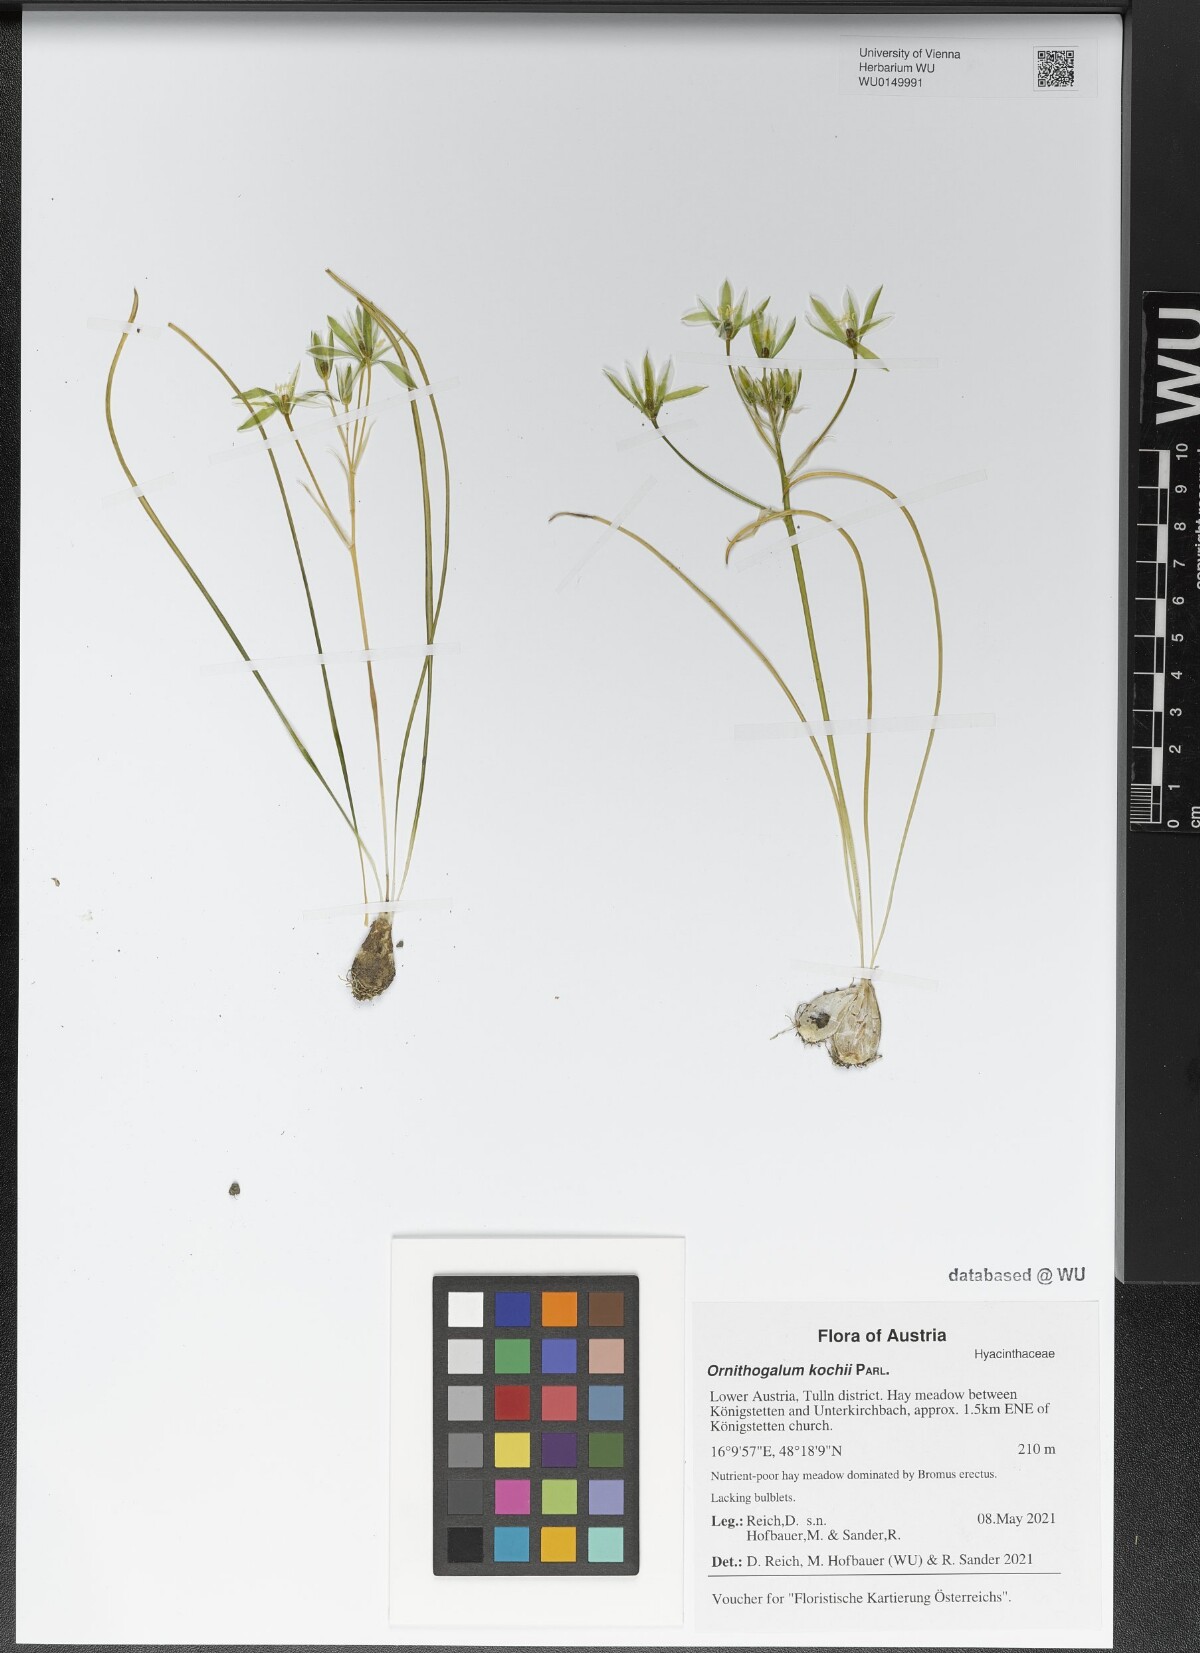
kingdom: Plantae
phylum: Tracheophyta
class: Liliopsida
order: Asparagales
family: Asparagaceae
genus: Ornithogalum
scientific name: Ornithogalum orthophyllum
